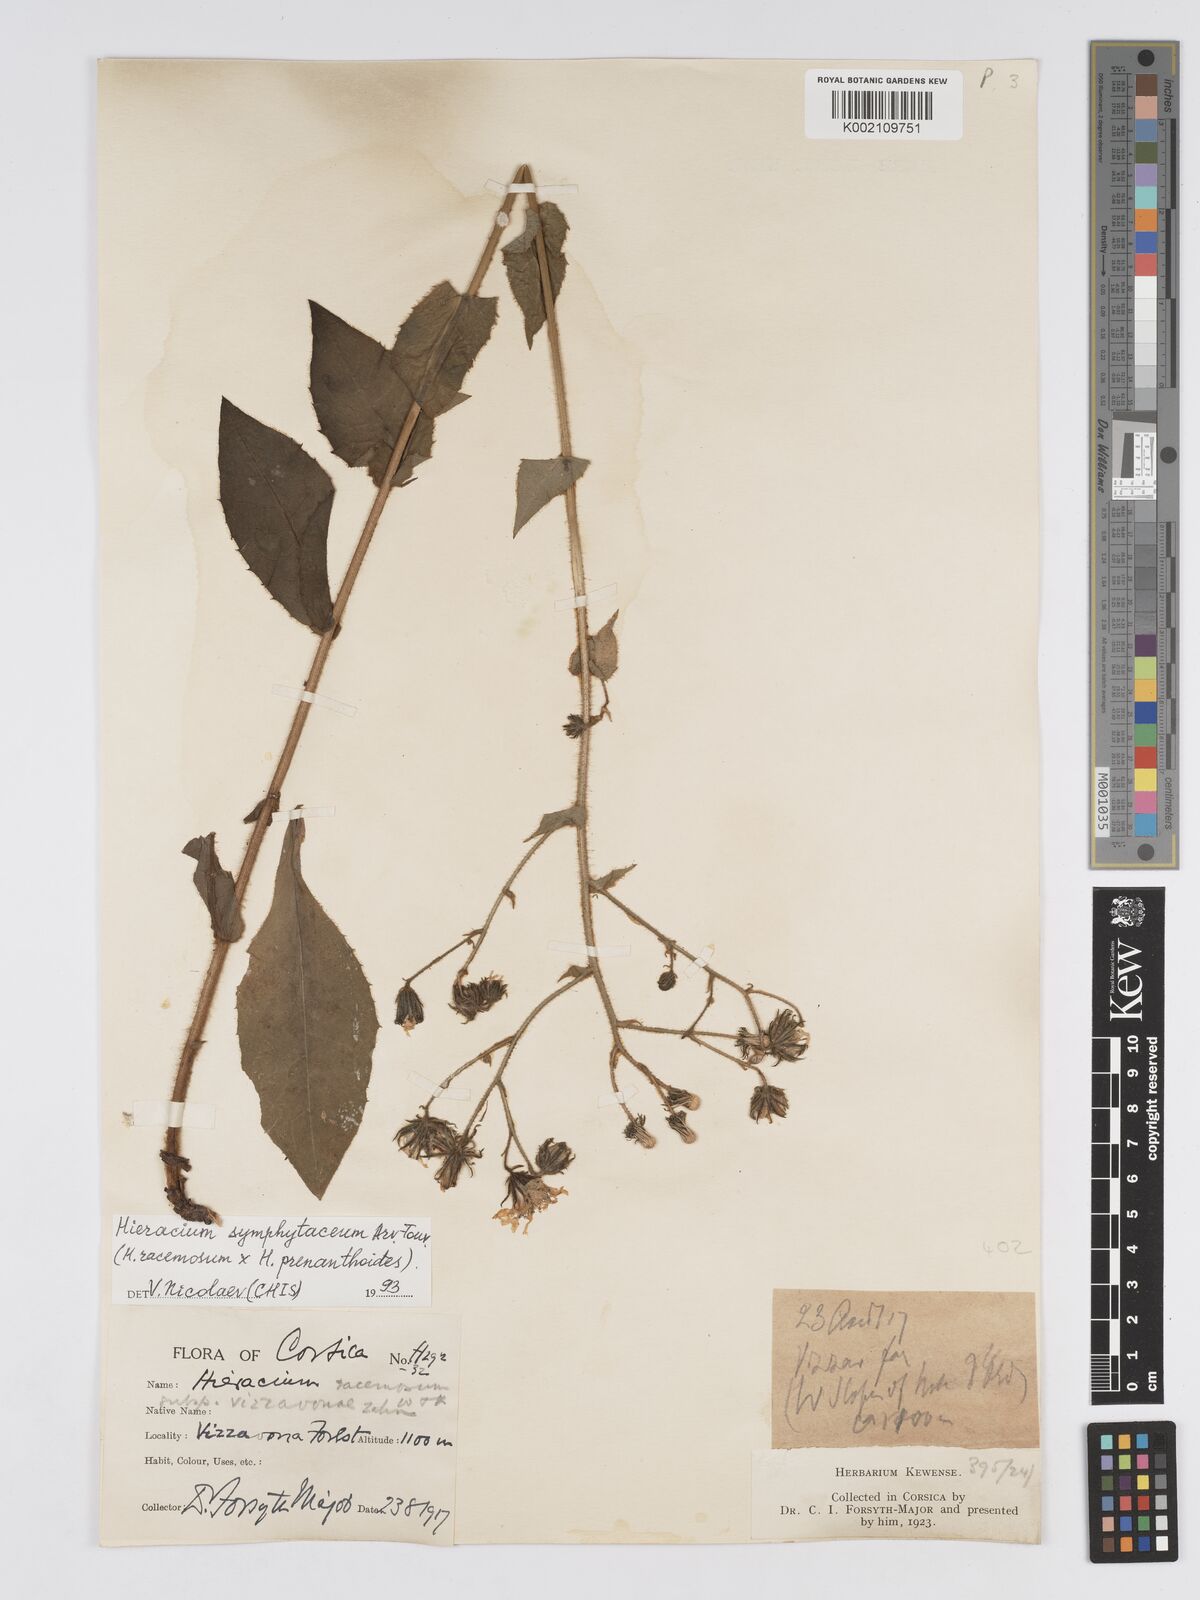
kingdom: Plantae
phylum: Tracheophyta
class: Magnoliopsida
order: Asterales
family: Asteraceae
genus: Hieracium
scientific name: Hieracium
